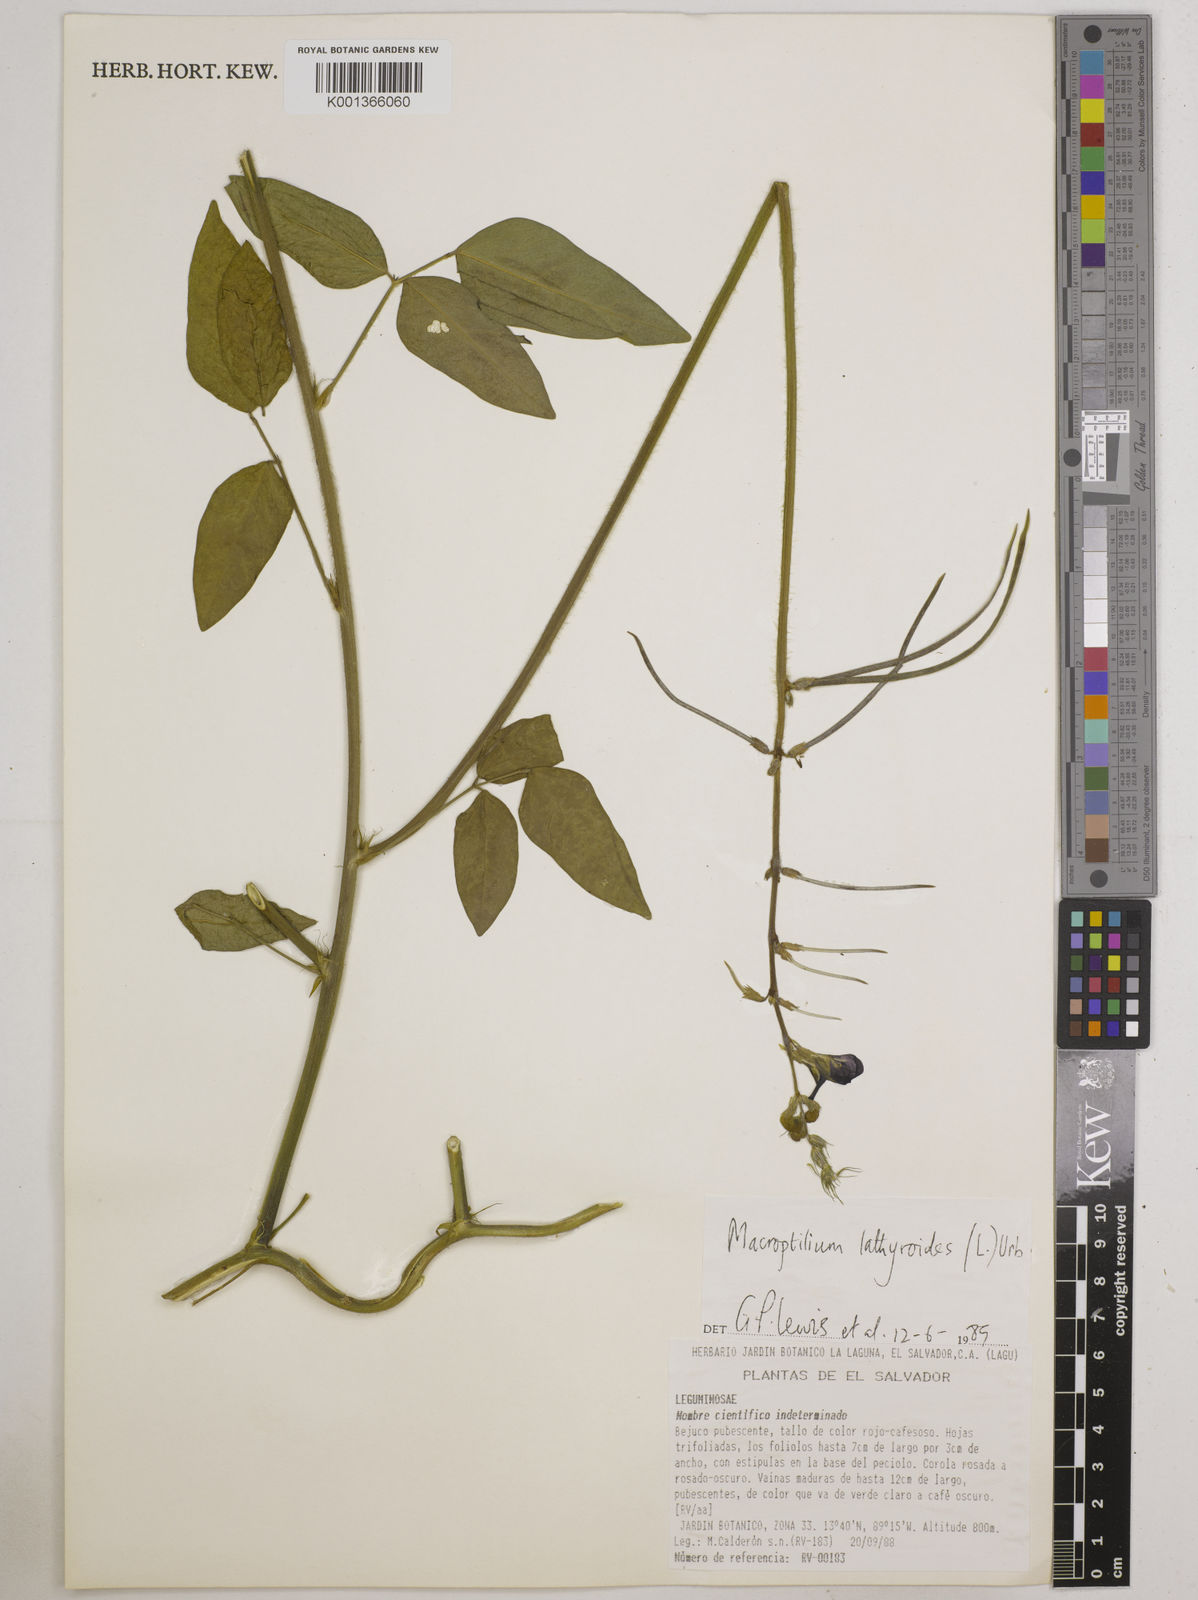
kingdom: Plantae
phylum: Tracheophyta
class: Magnoliopsida
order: Fabales
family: Fabaceae
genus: Macroptilium
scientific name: Macroptilium lathyroides
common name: Wild bushbean
